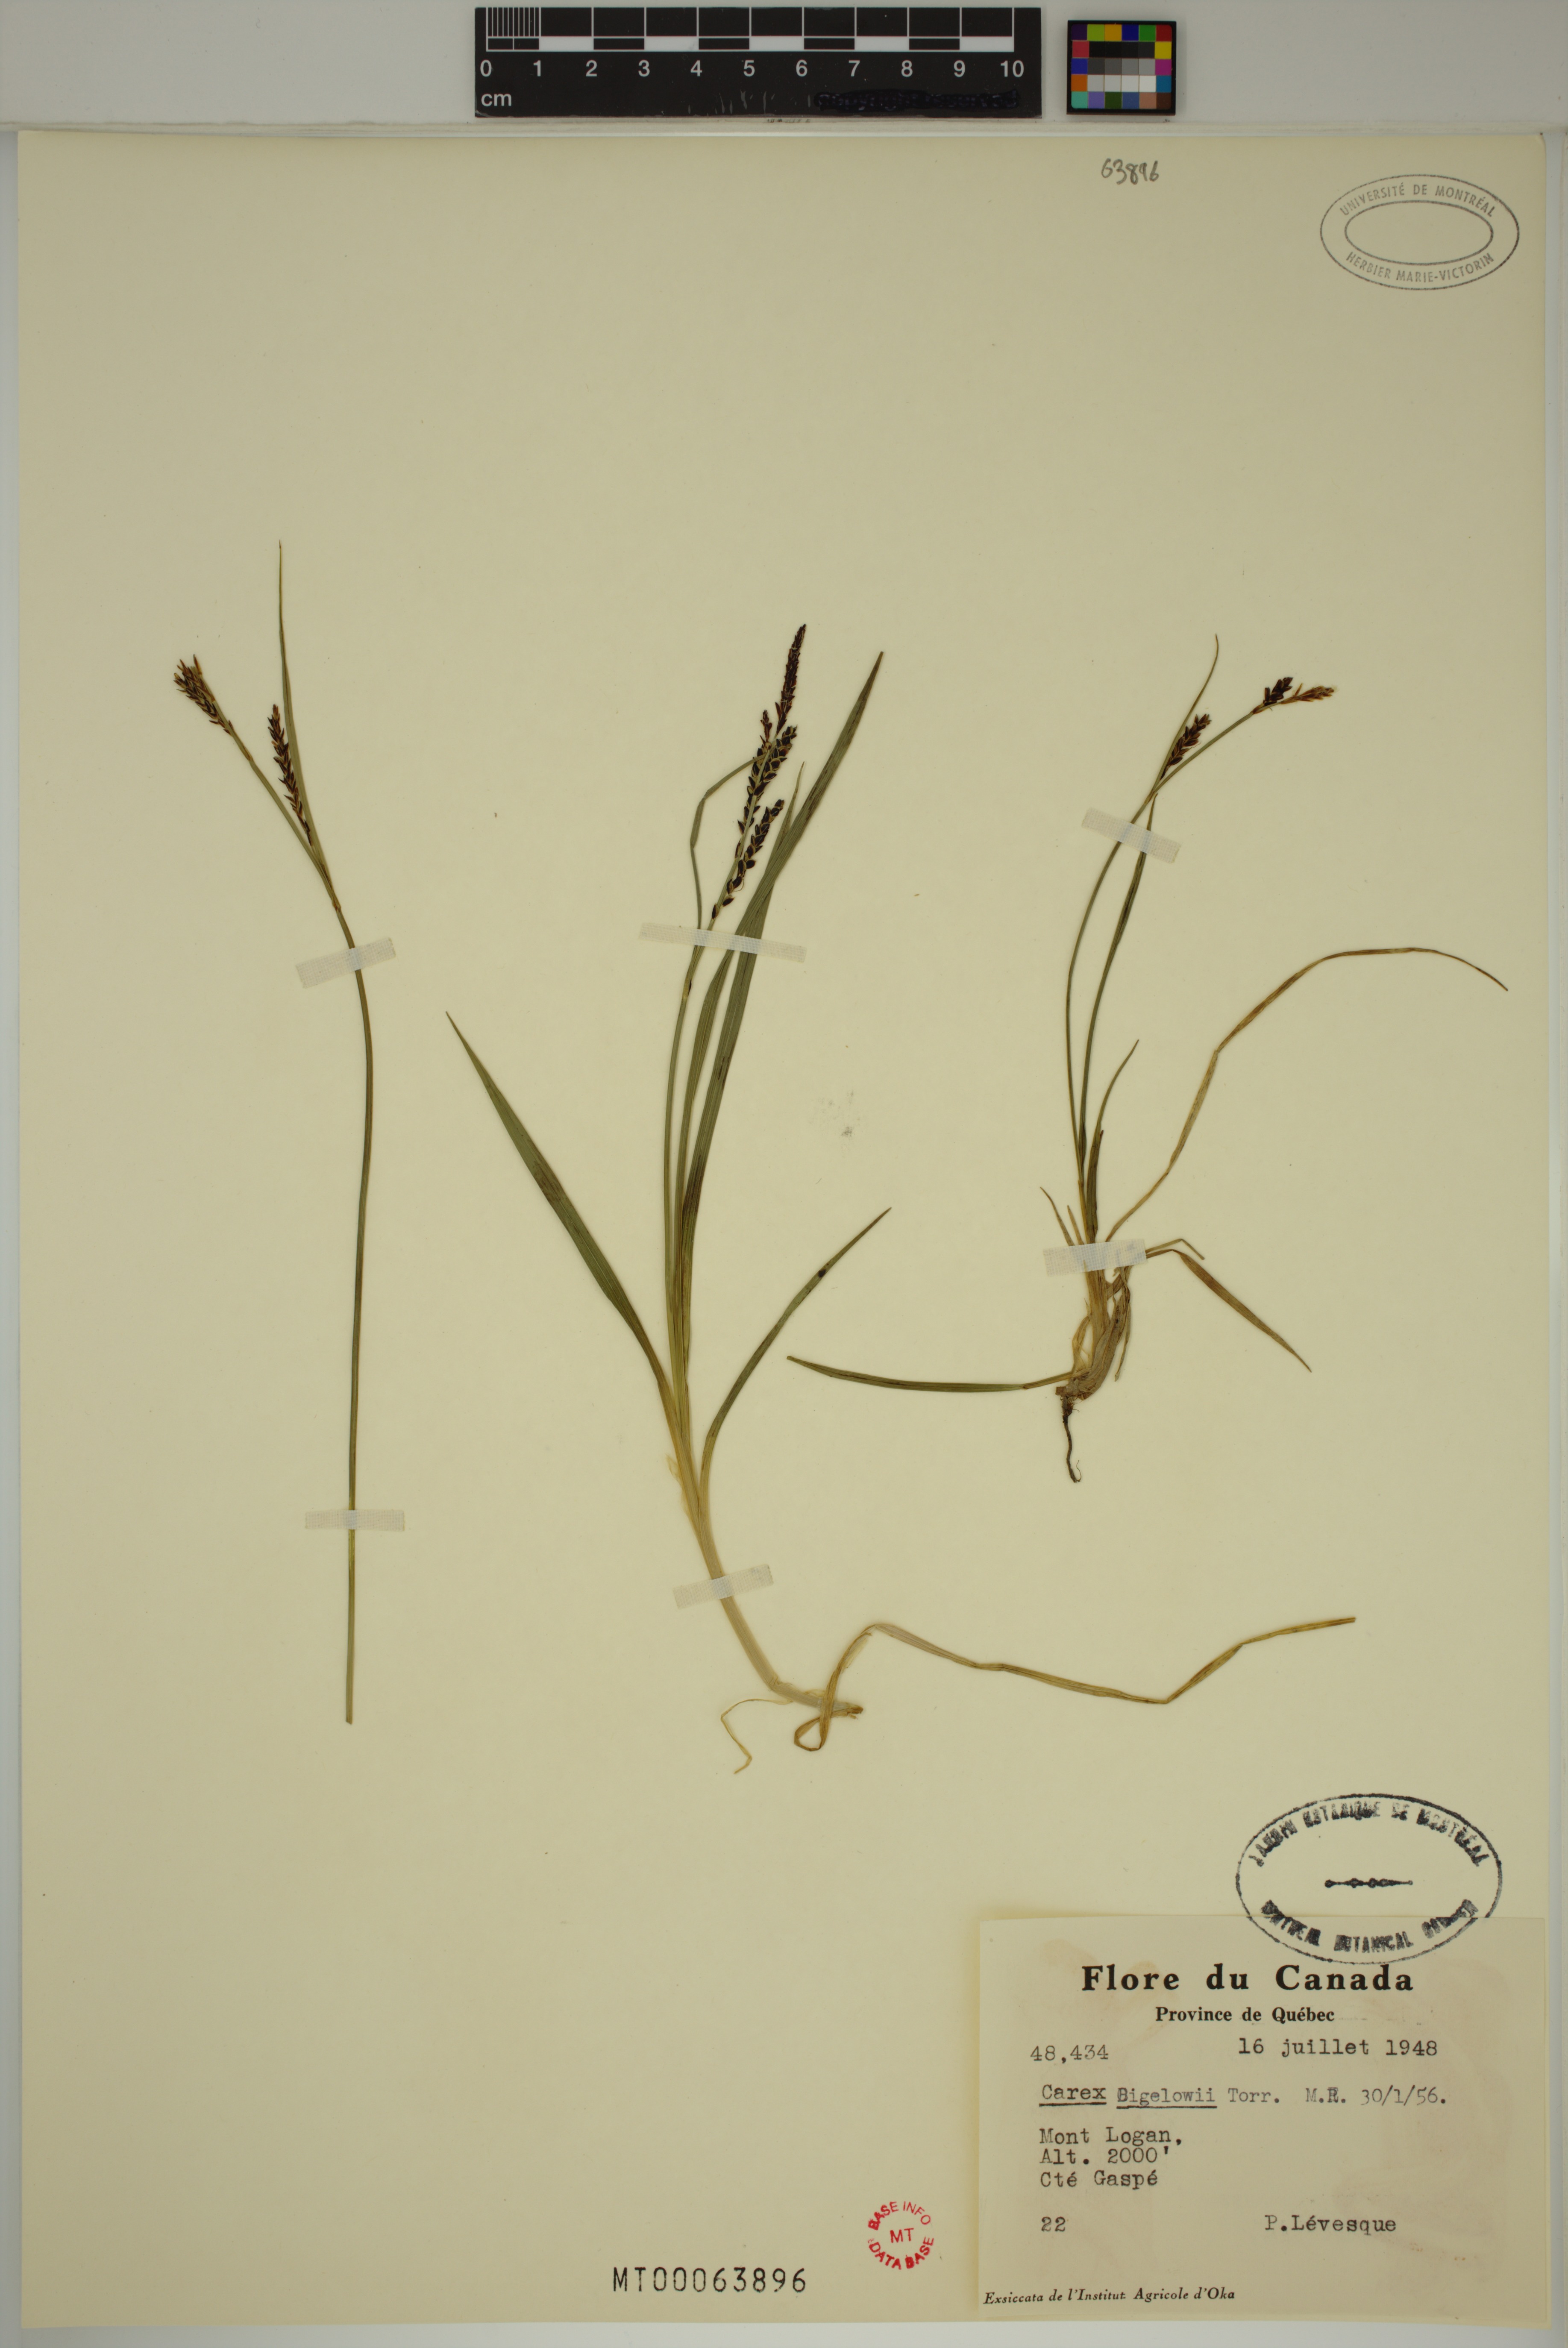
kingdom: Plantae
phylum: Tracheophyta
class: Liliopsida
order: Poales
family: Cyperaceae
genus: Carex
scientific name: Carex bigelowii
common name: Stiff sedge
